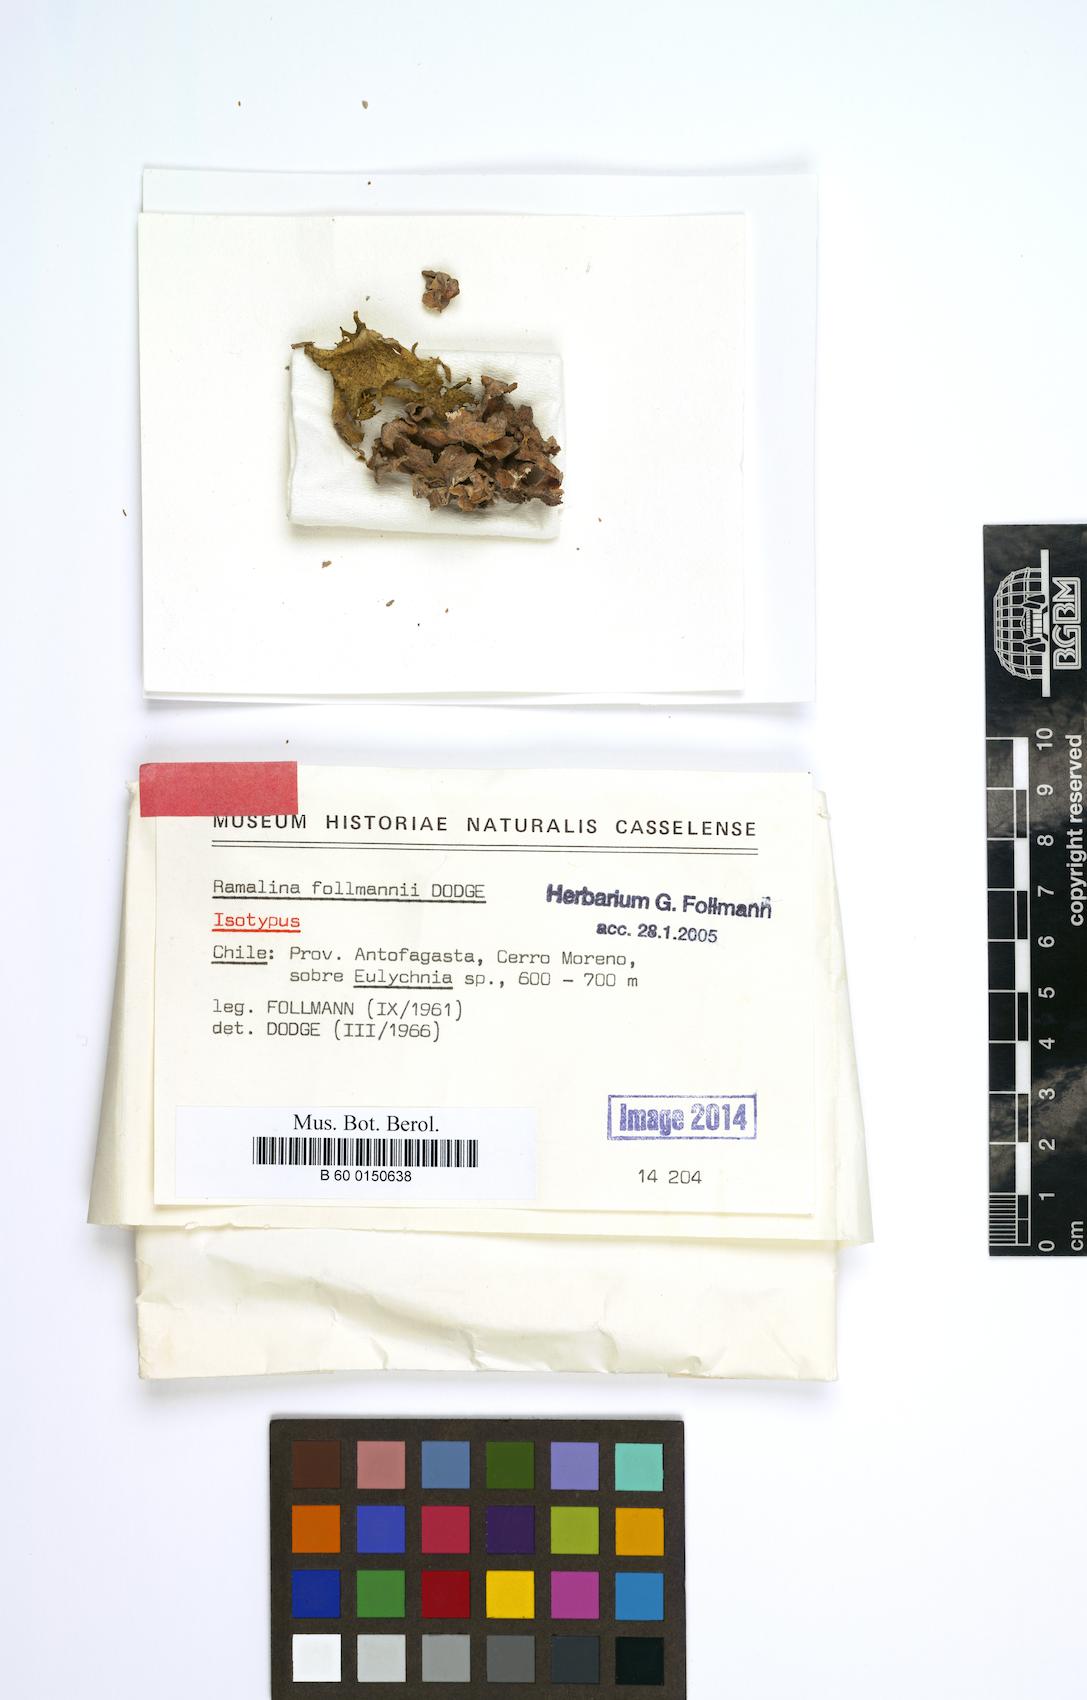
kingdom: Fungi
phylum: Ascomycota
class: Lecanoromycetes
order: Lecanorales
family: Ramalinaceae
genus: Ramalina
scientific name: Ramalina
